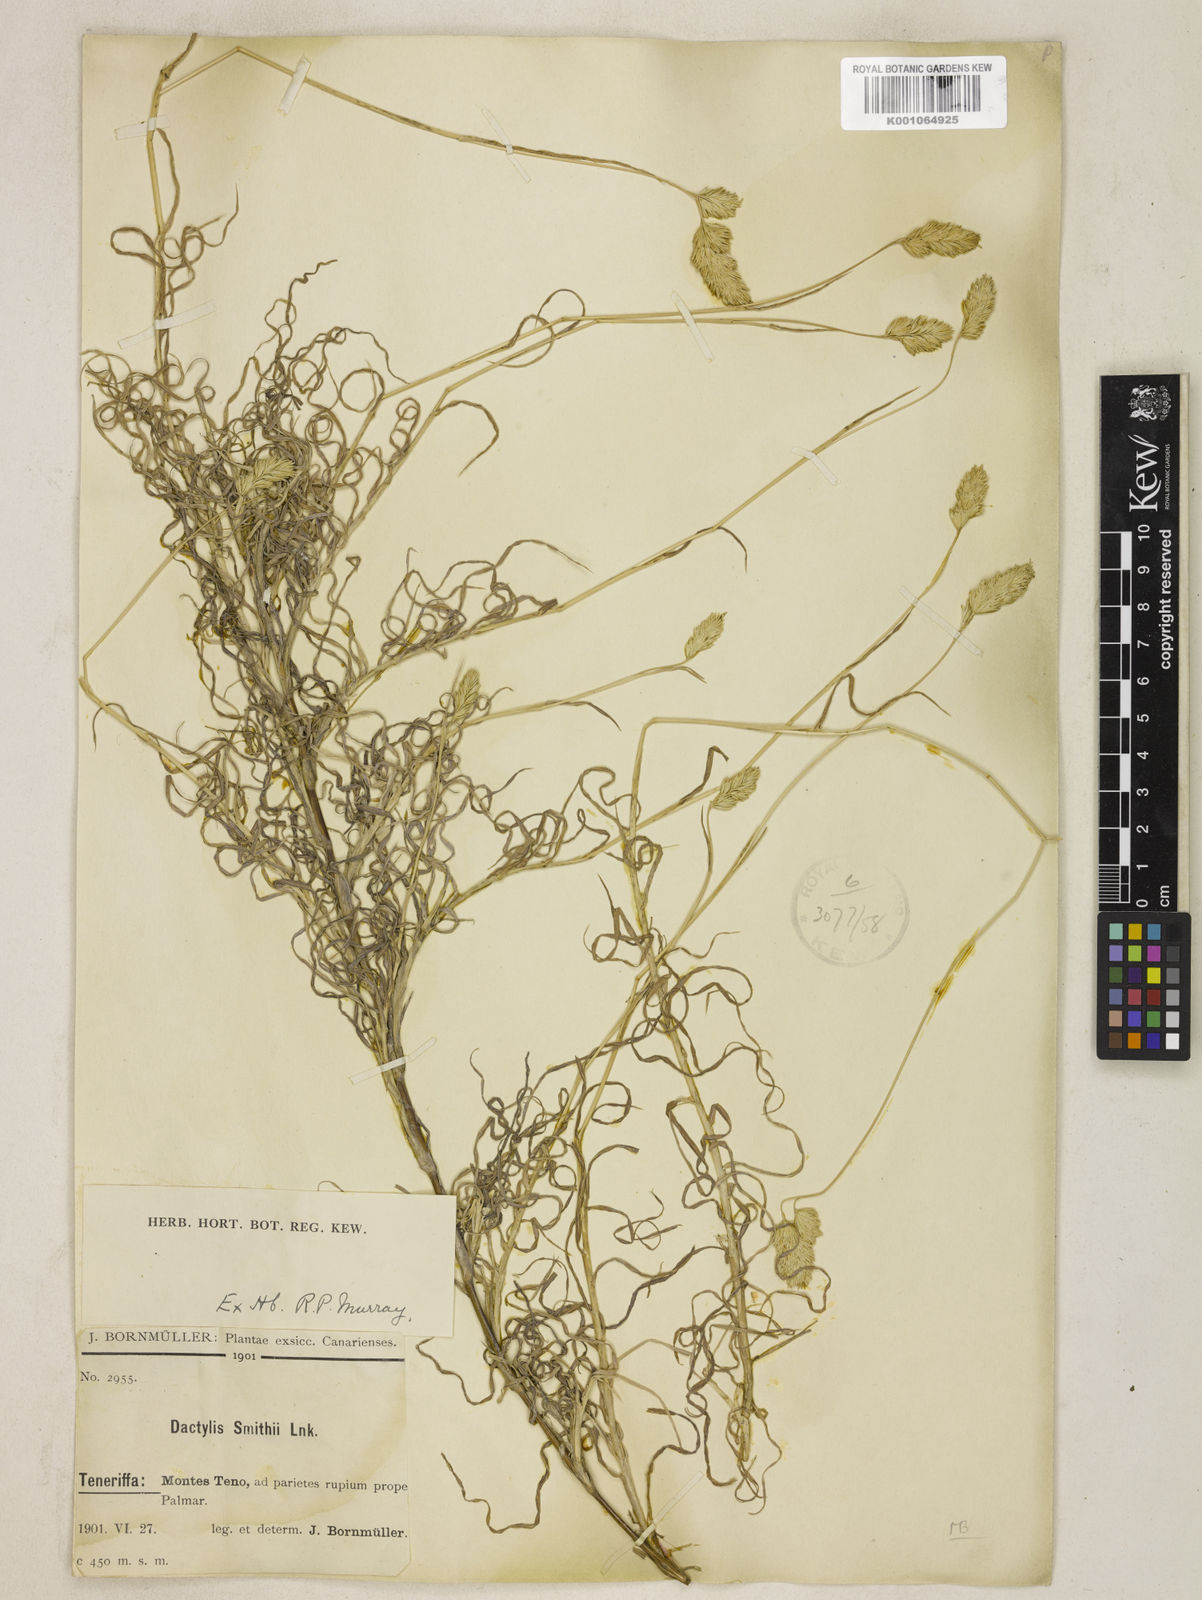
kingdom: Plantae
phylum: Tracheophyta
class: Liliopsida
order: Poales
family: Poaceae
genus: Dactylis
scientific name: Dactylis glomerata
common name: Orchardgrass
